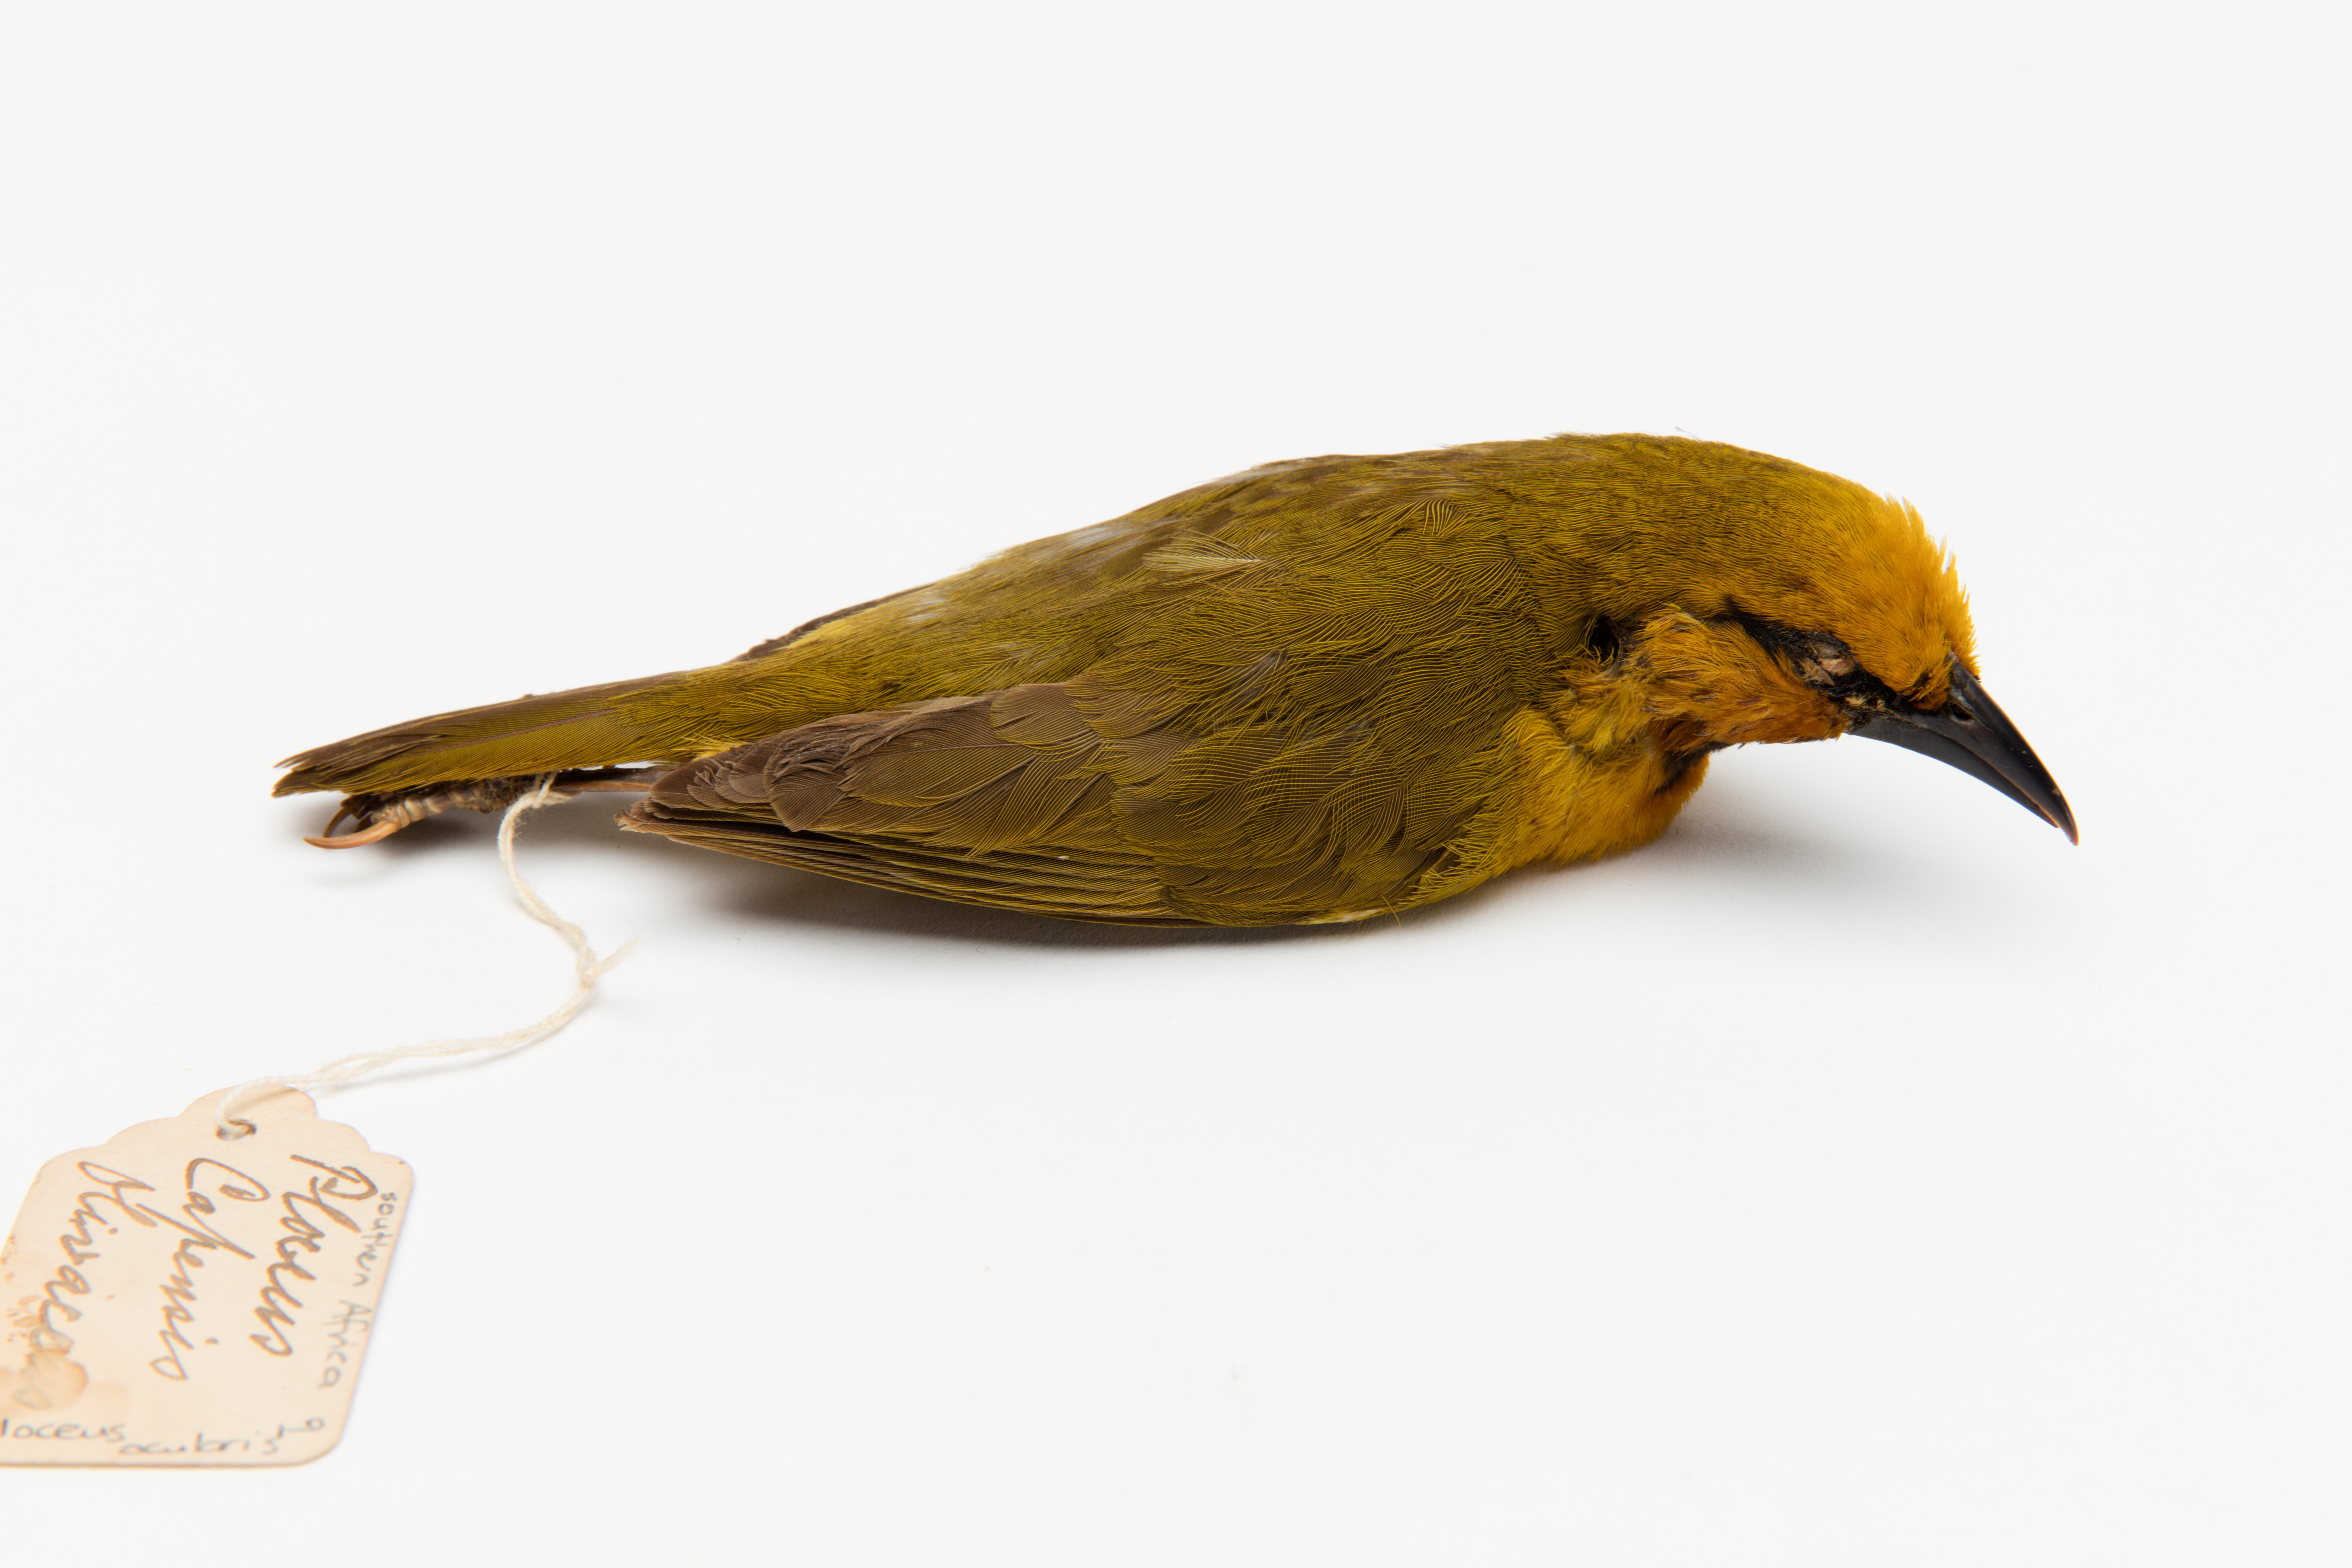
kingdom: Animalia
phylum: Chordata
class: Aves
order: Passeriformes
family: Ploceidae
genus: Ploceus
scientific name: Ploceus ocularis
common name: Spectacled weaver
